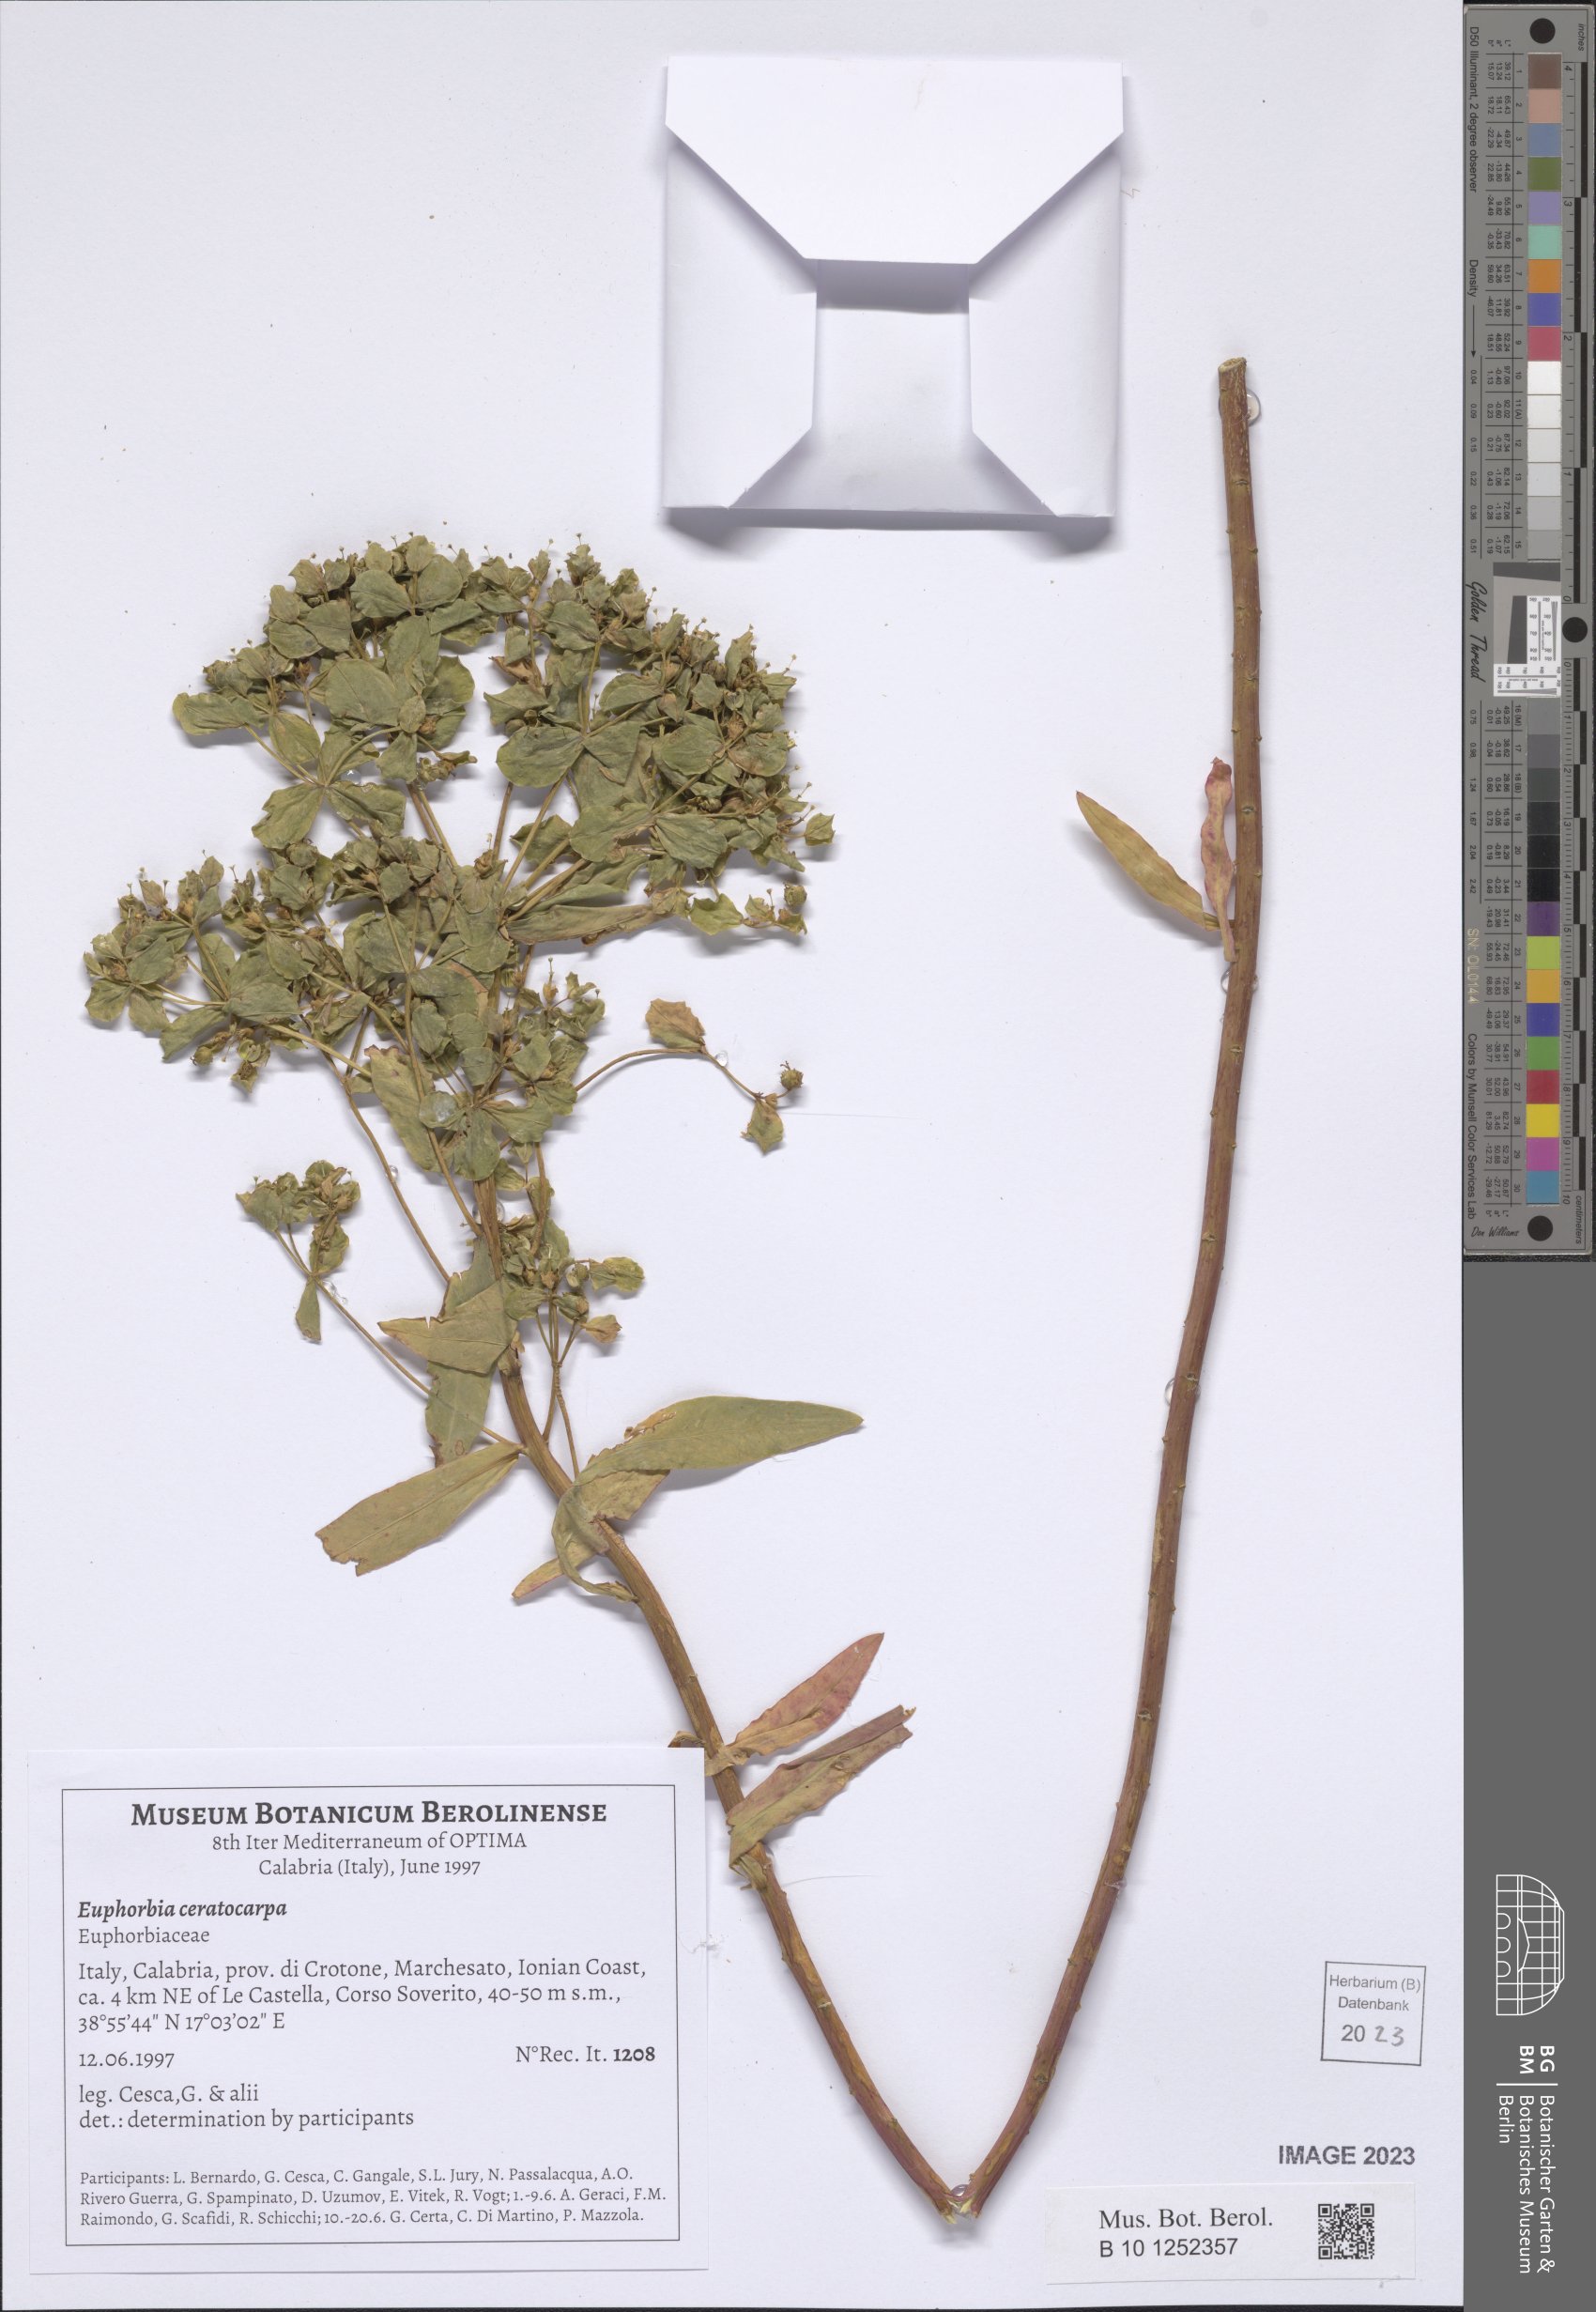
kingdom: Plantae
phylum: Tracheophyta
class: Magnoliopsida
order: Malpighiales
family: Euphorbiaceae
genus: Euphorbia
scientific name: Euphorbia ceratocarpa
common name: Horned spurge
